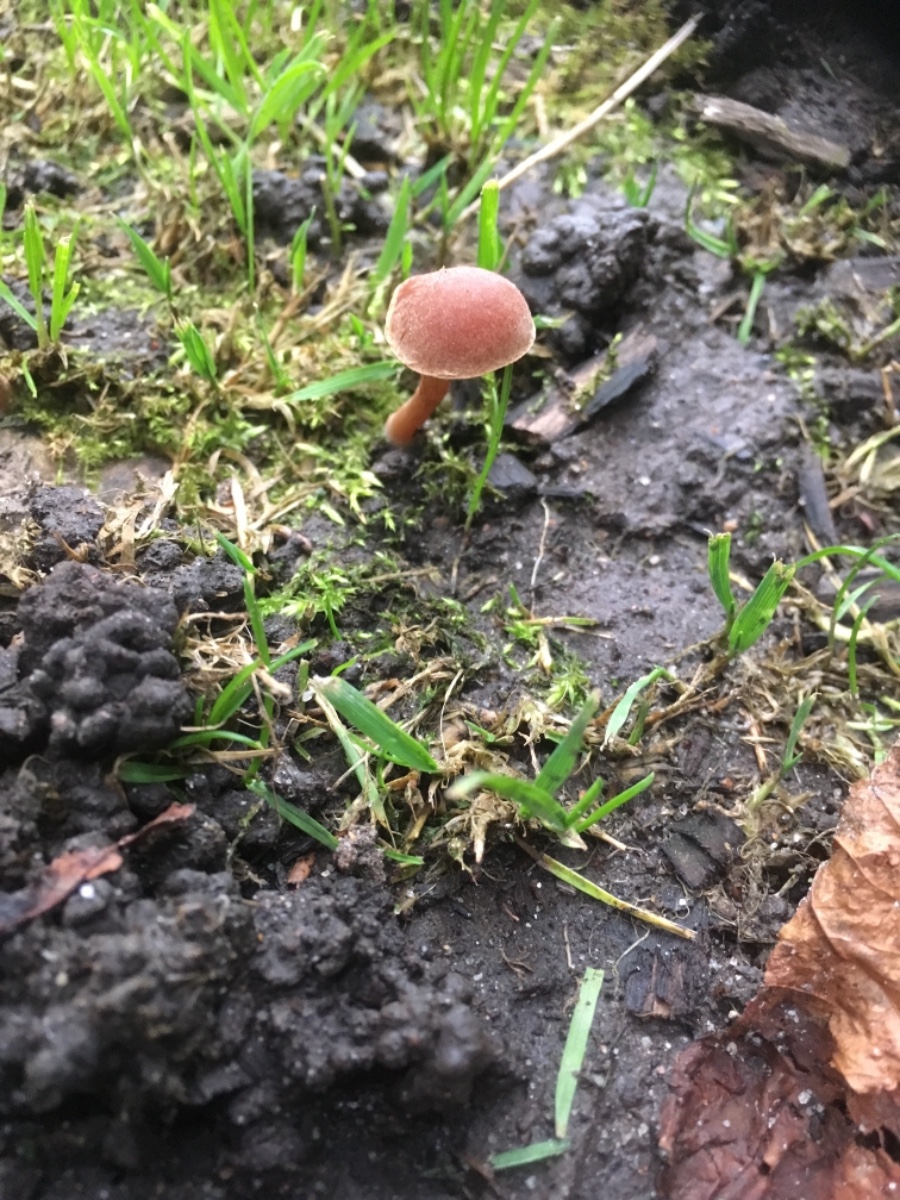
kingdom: Fungi
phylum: Basidiomycota
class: Agaricomycetes
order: Agaricales
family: Tubariaceae
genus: Tubaria
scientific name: Tubaria
